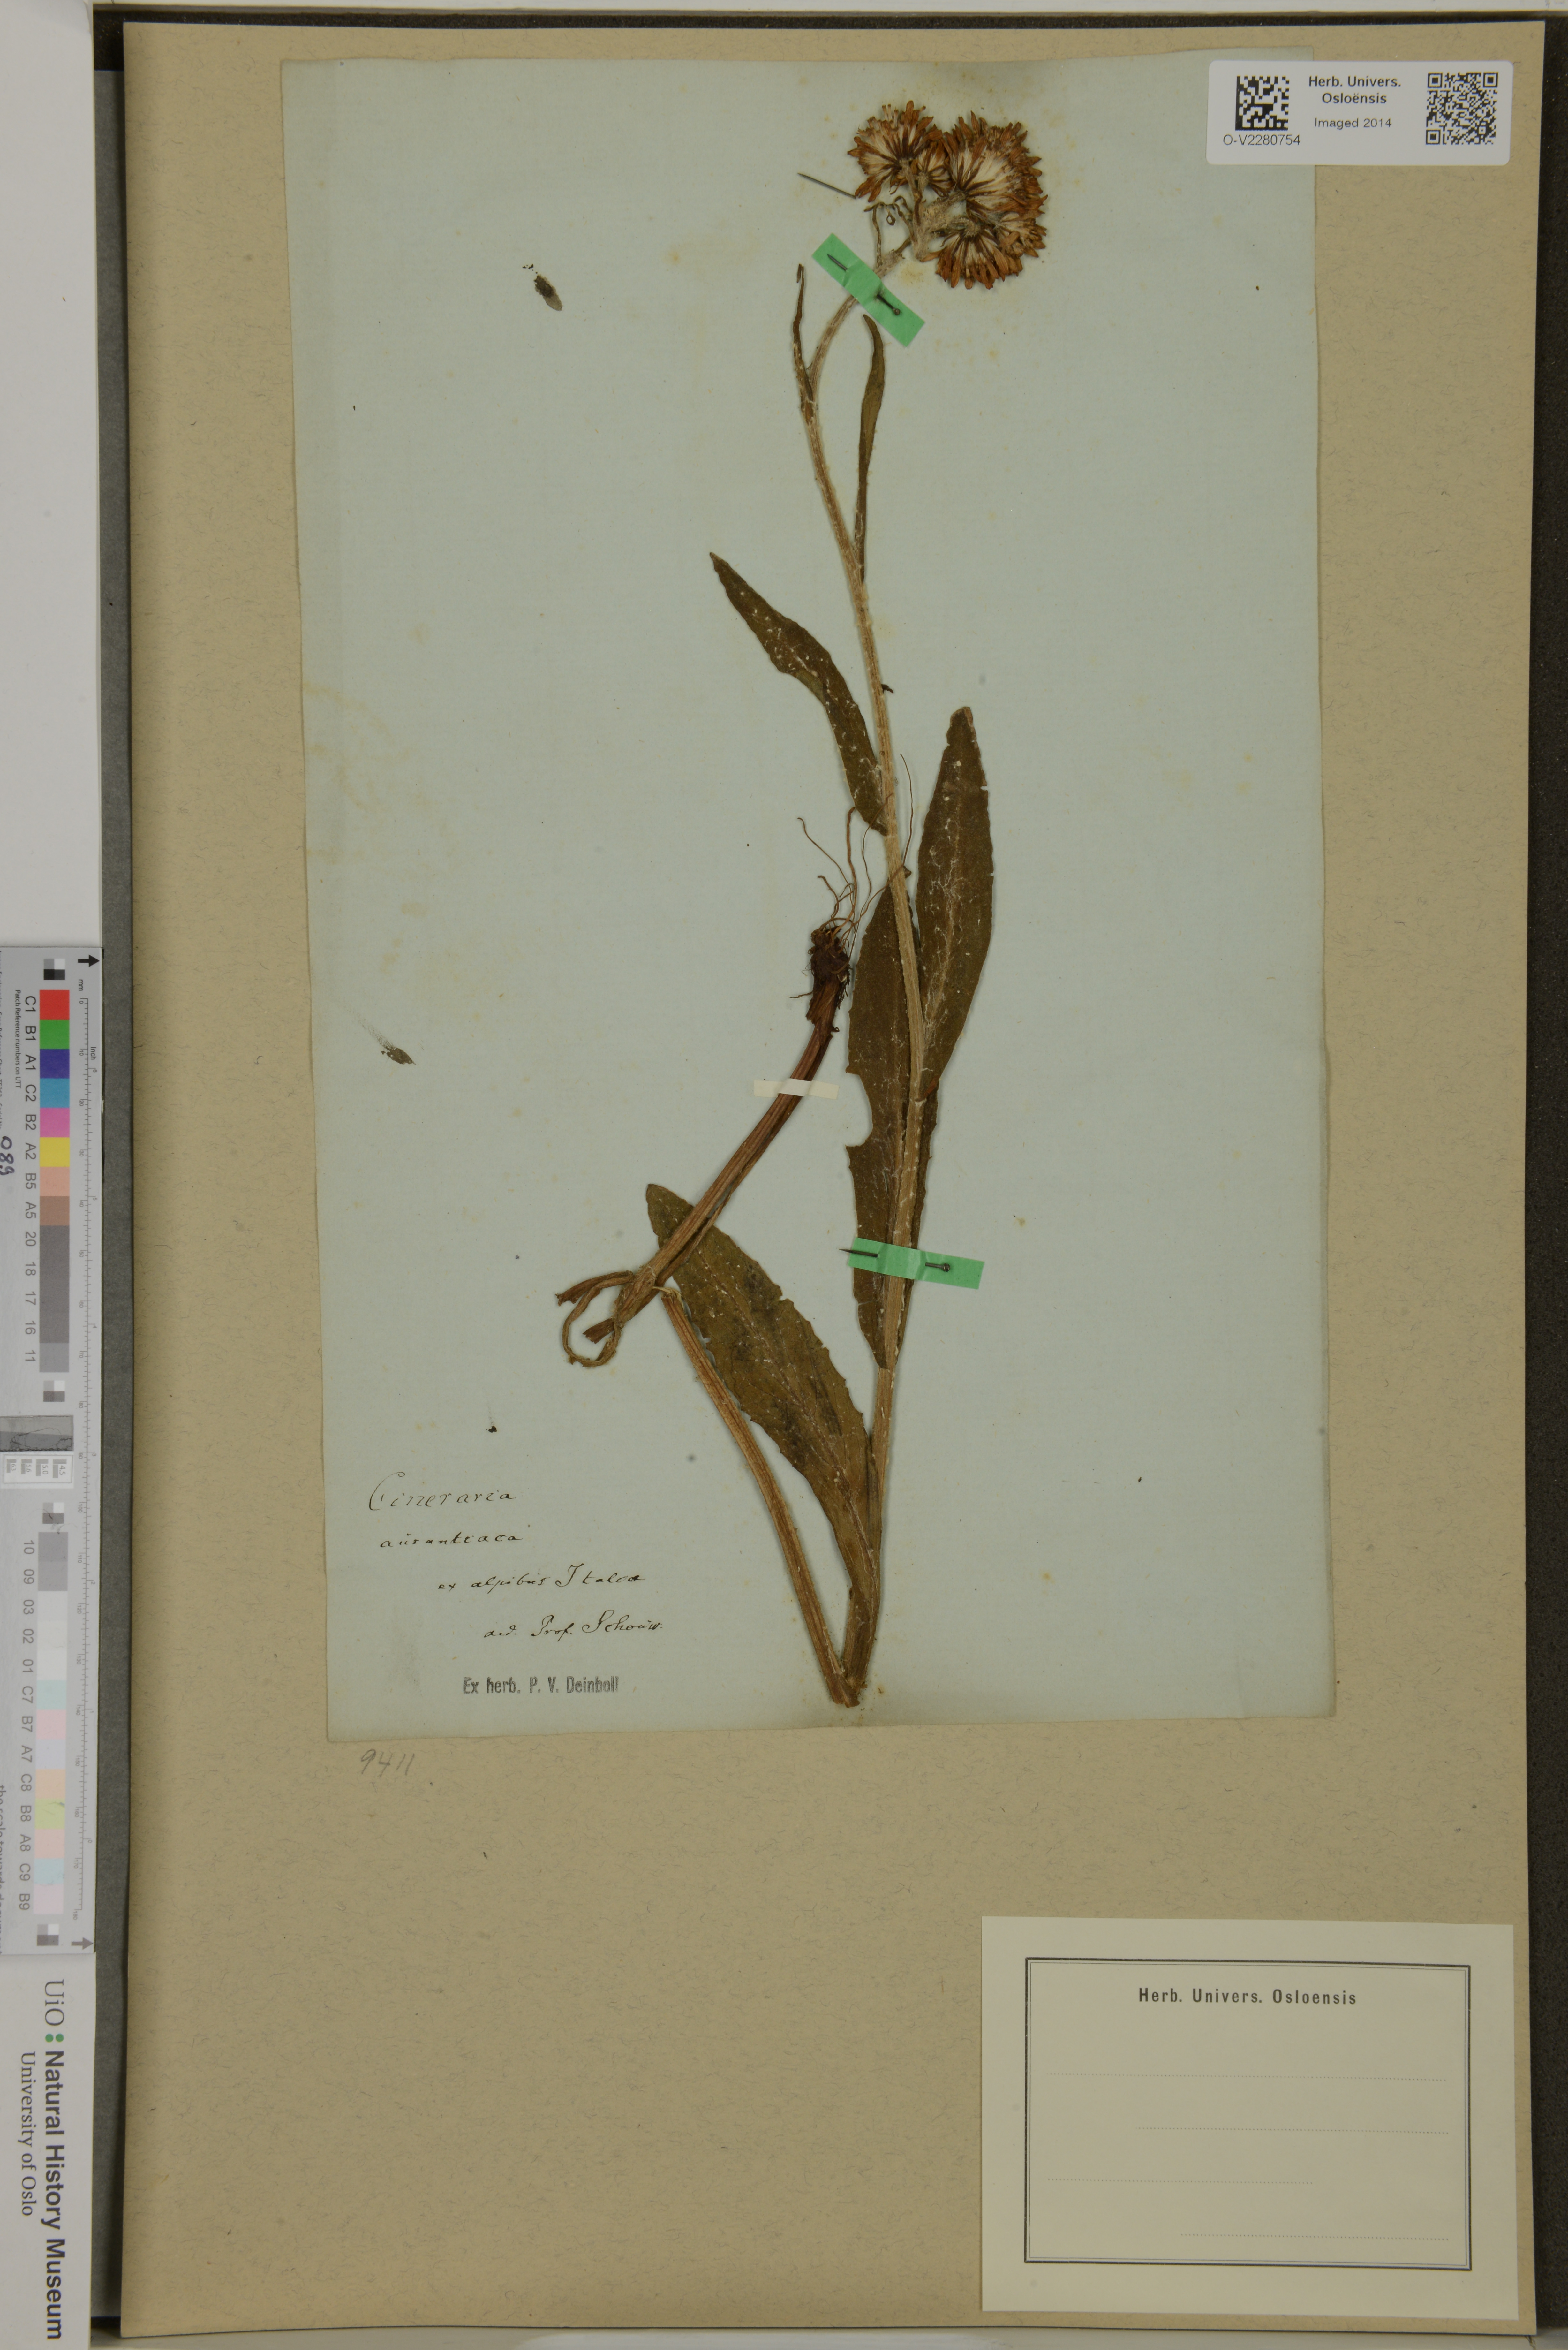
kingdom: Plantae
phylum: Tracheophyta
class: Magnoliopsida
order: Asterales
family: Asteraceae
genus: Tephroseris
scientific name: Tephroseris longifolia
